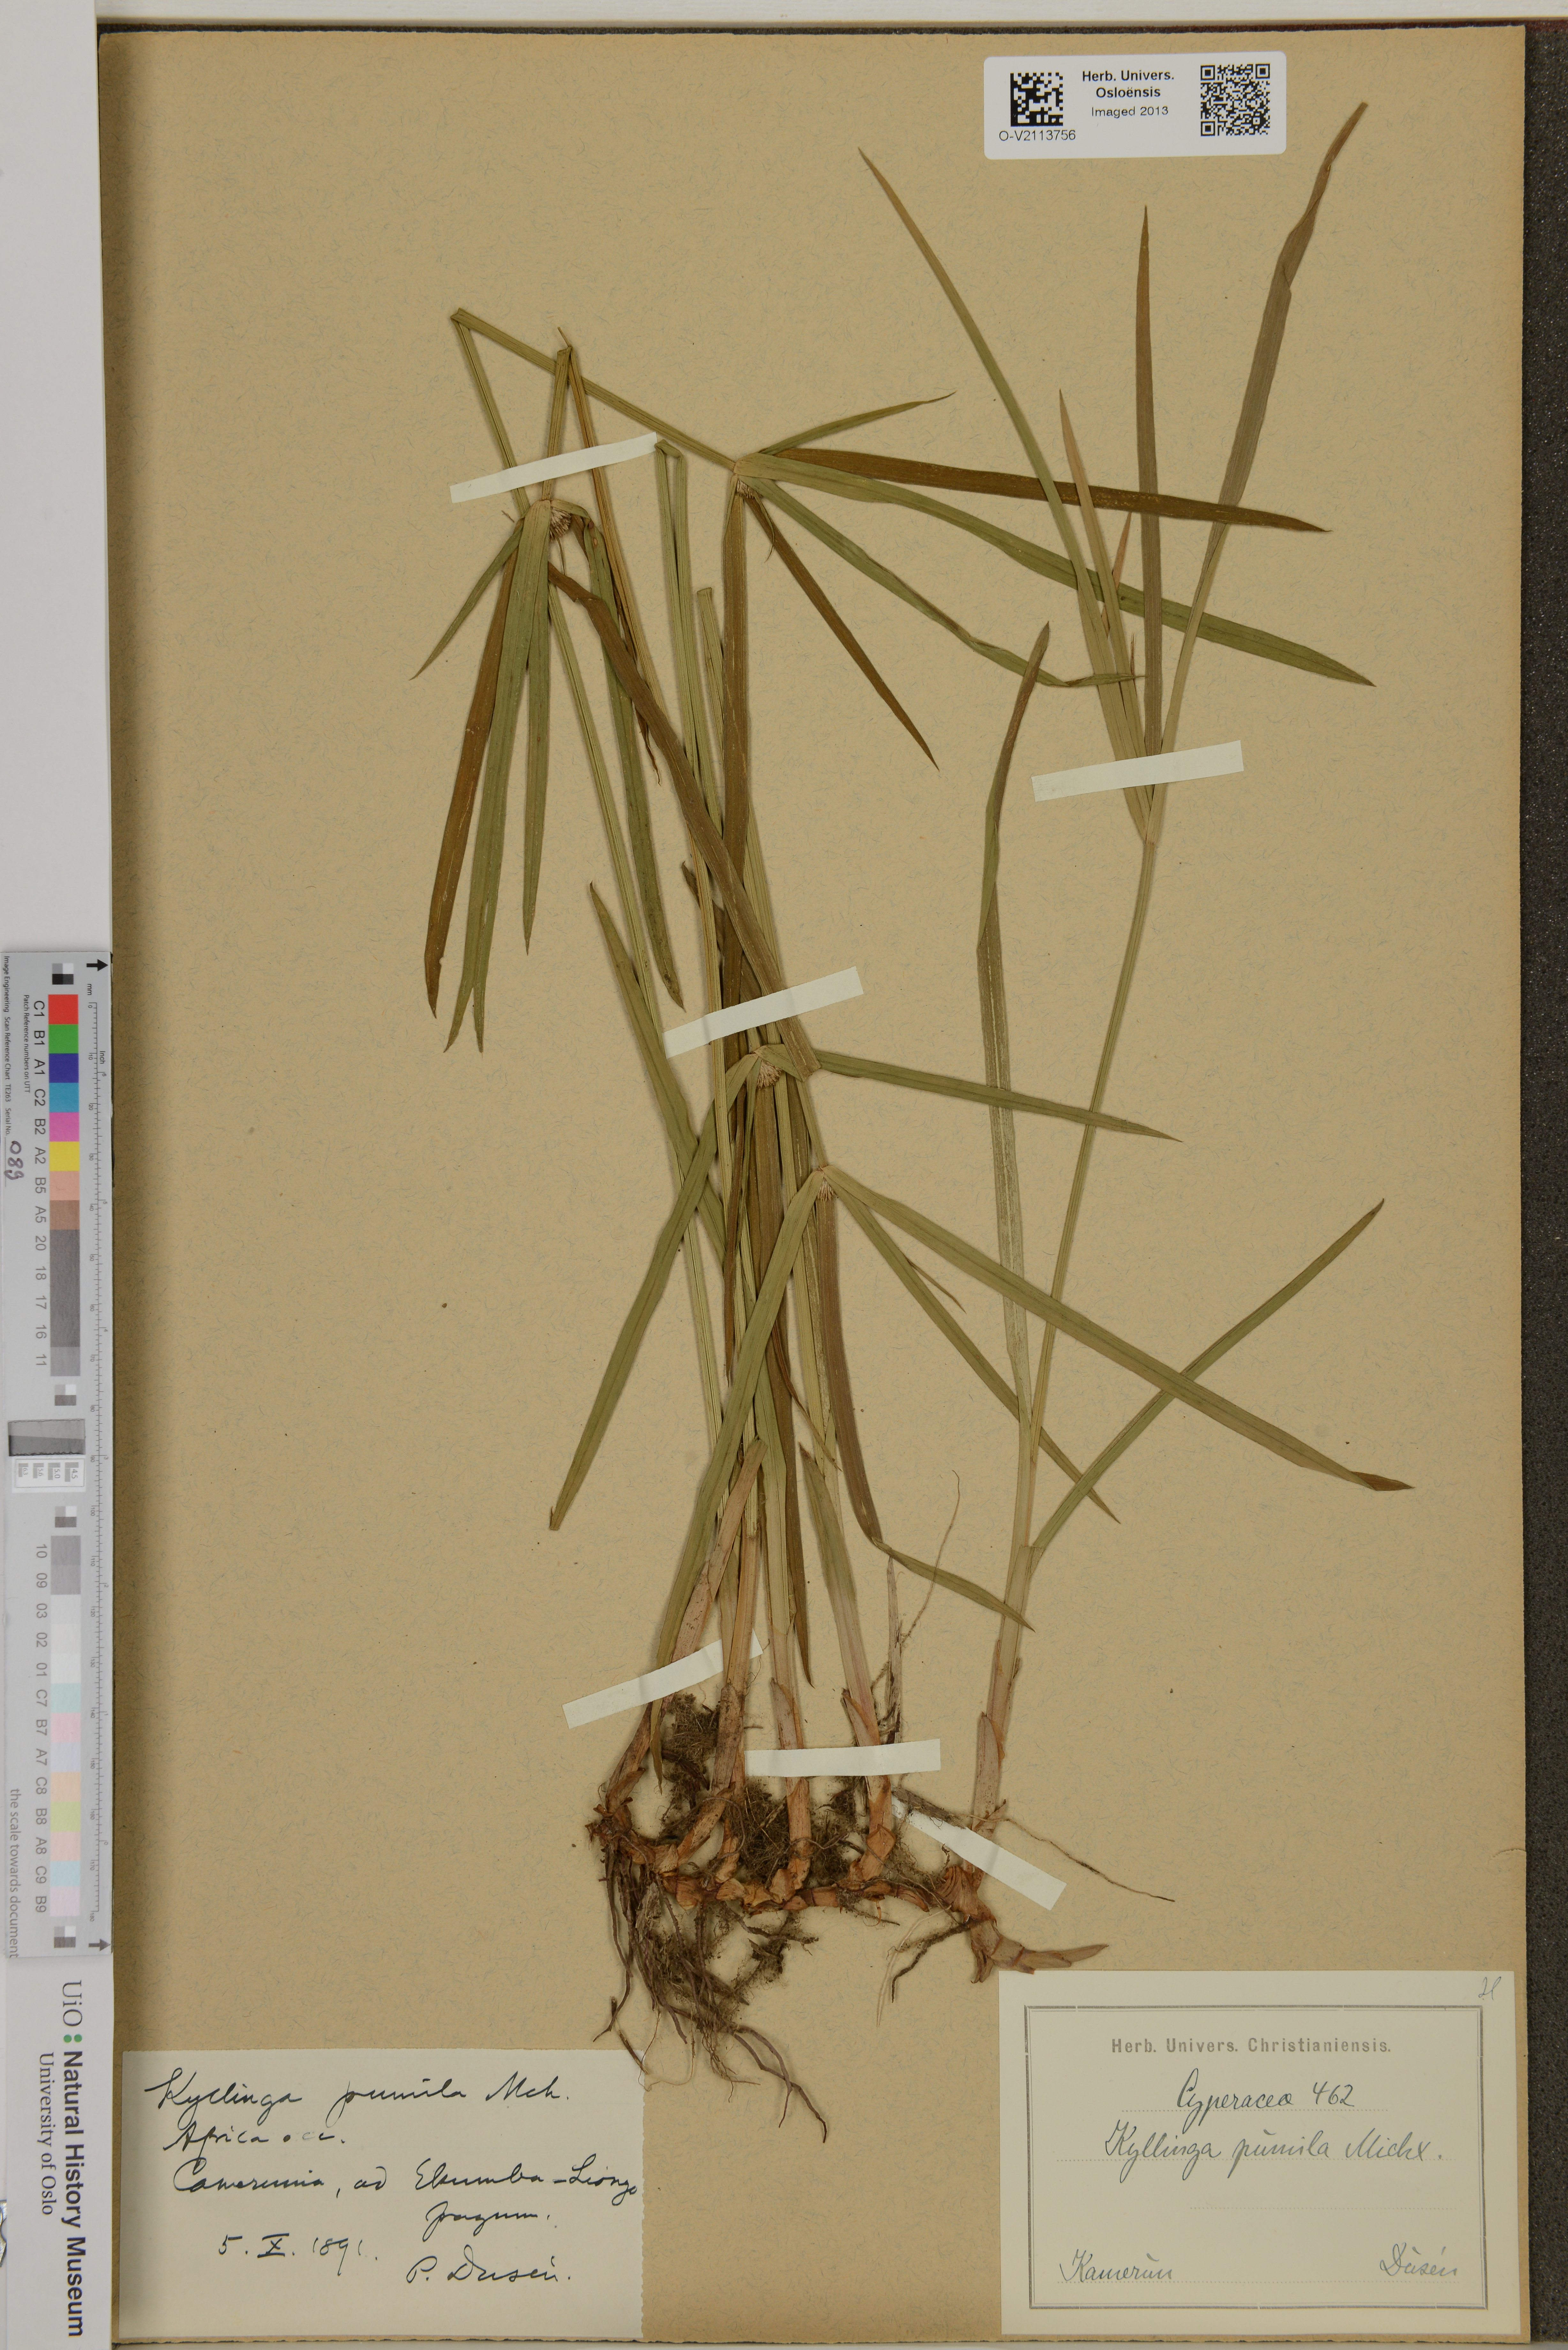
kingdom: Plantae
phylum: Tracheophyta
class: Liliopsida
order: Poales
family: Cyperaceae
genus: Cyperus
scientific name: Cyperus
